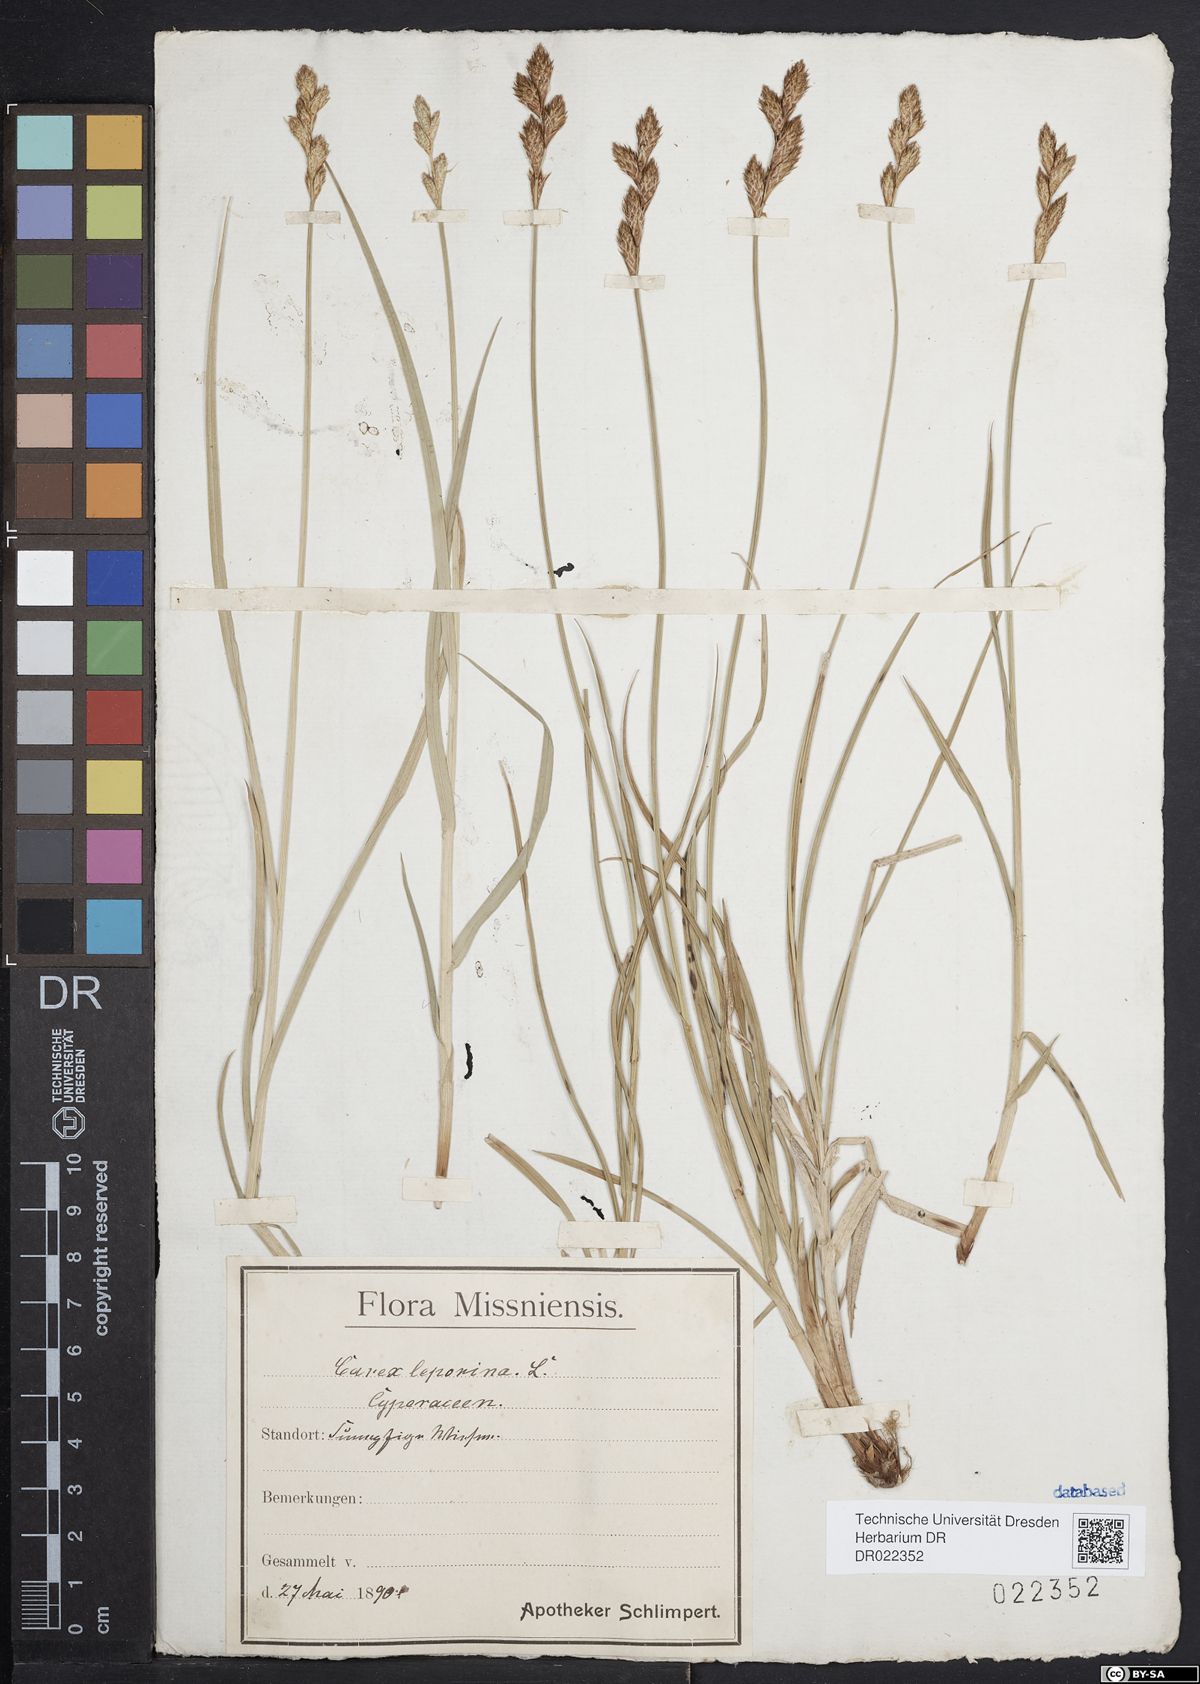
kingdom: Plantae
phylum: Tracheophyta
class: Liliopsida
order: Poales
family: Cyperaceae
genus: Carex
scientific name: Carex leporina
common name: Oval sedge
